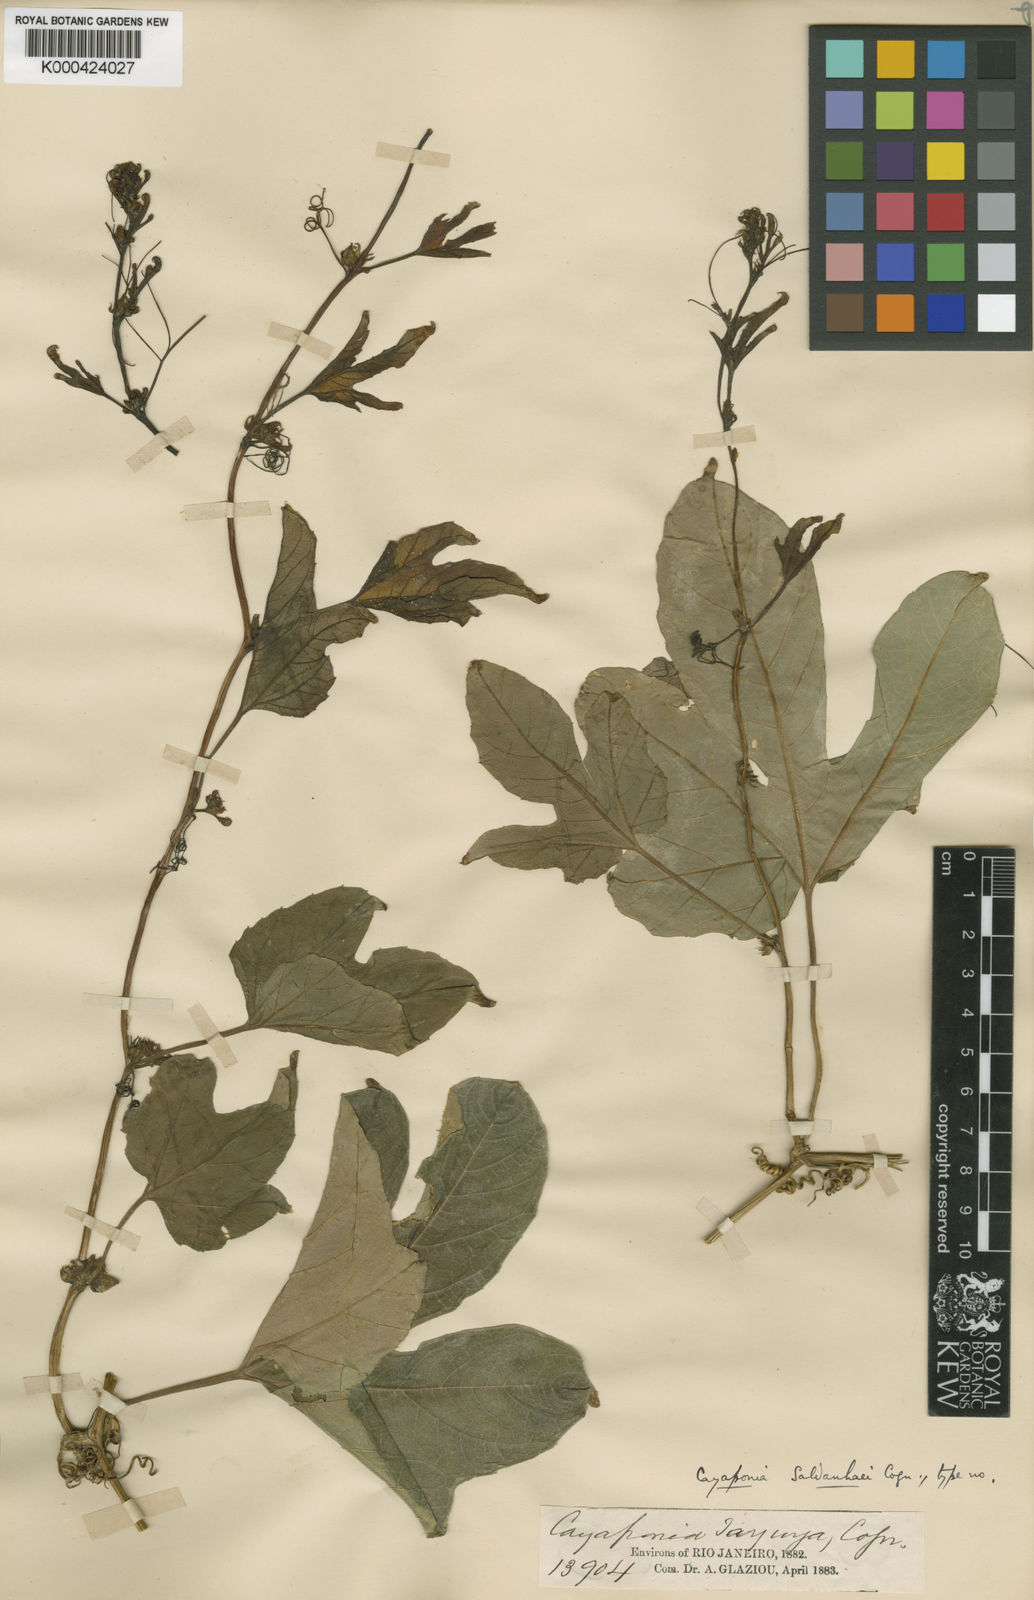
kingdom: Plantae
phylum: Tracheophyta
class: Magnoliopsida
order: Cucurbitales
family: Cucurbitaceae
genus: Cayaponia
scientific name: Cayaponia palmata
